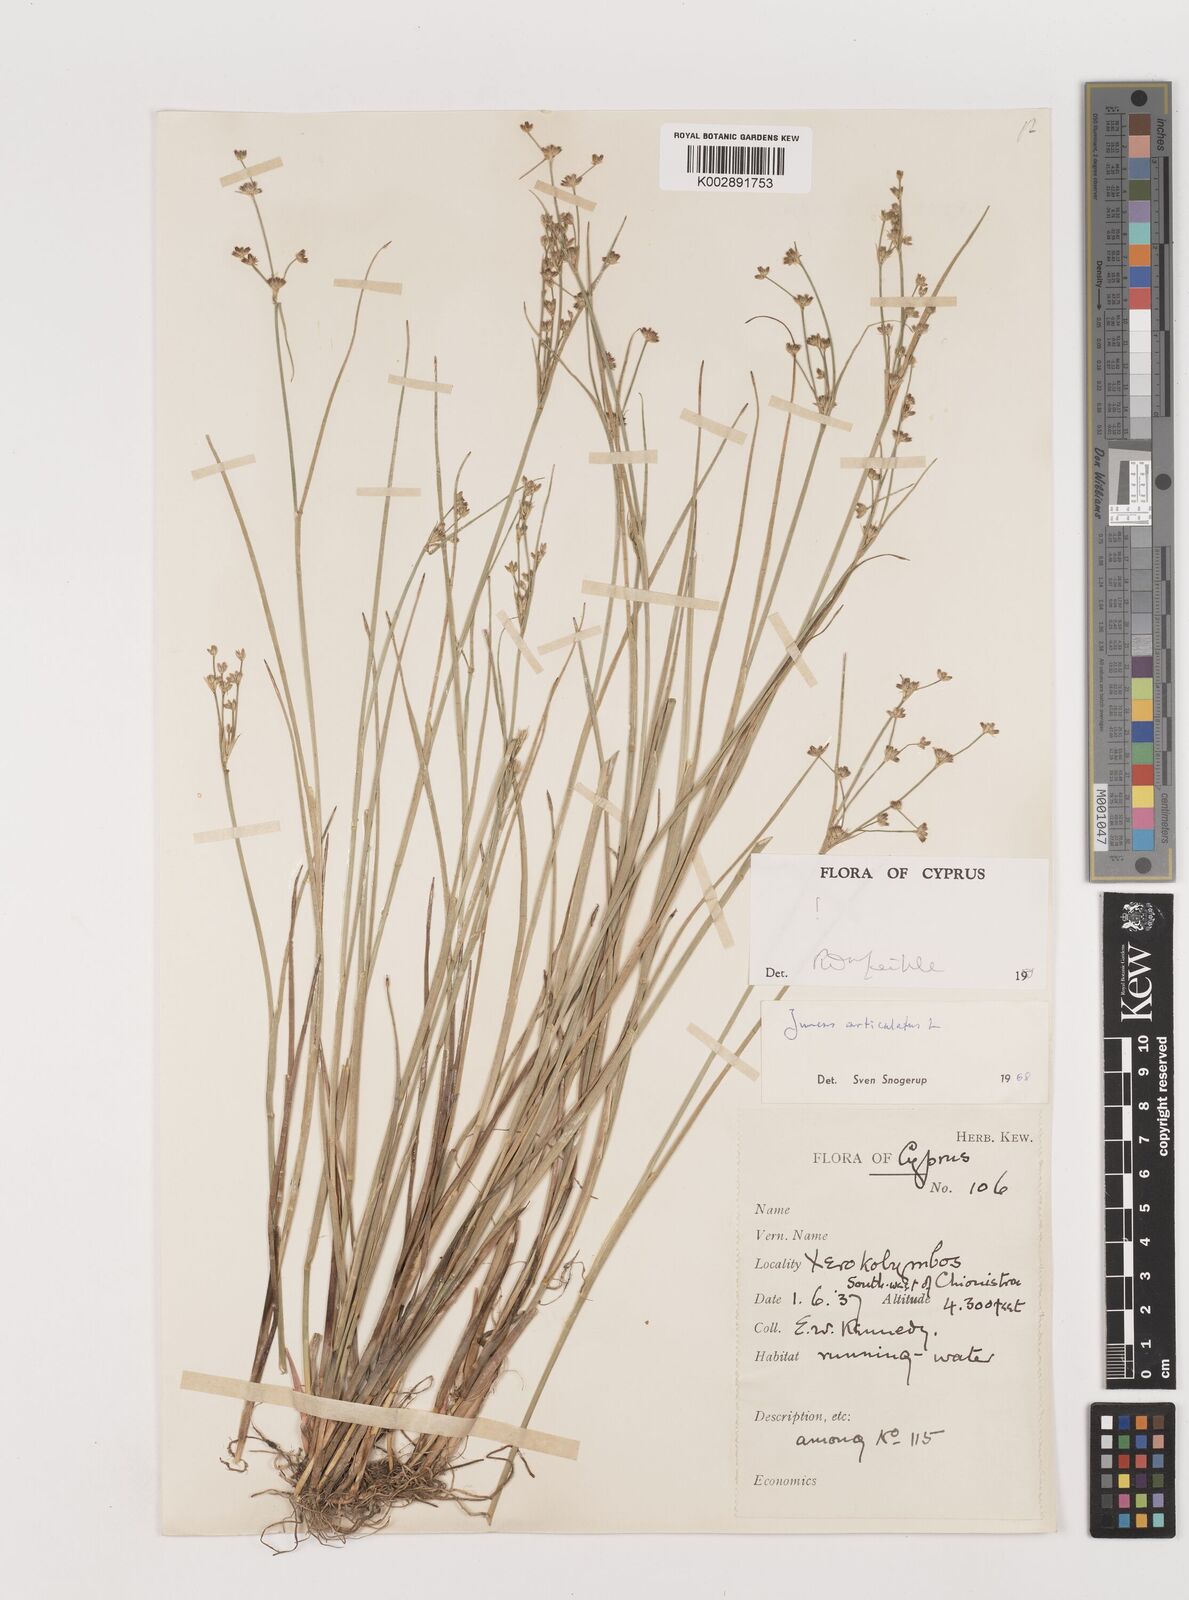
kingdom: Plantae
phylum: Tracheophyta
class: Liliopsida
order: Poales
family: Juncaceae
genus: Juncus
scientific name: Juncus articulatus
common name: Jointed rush
